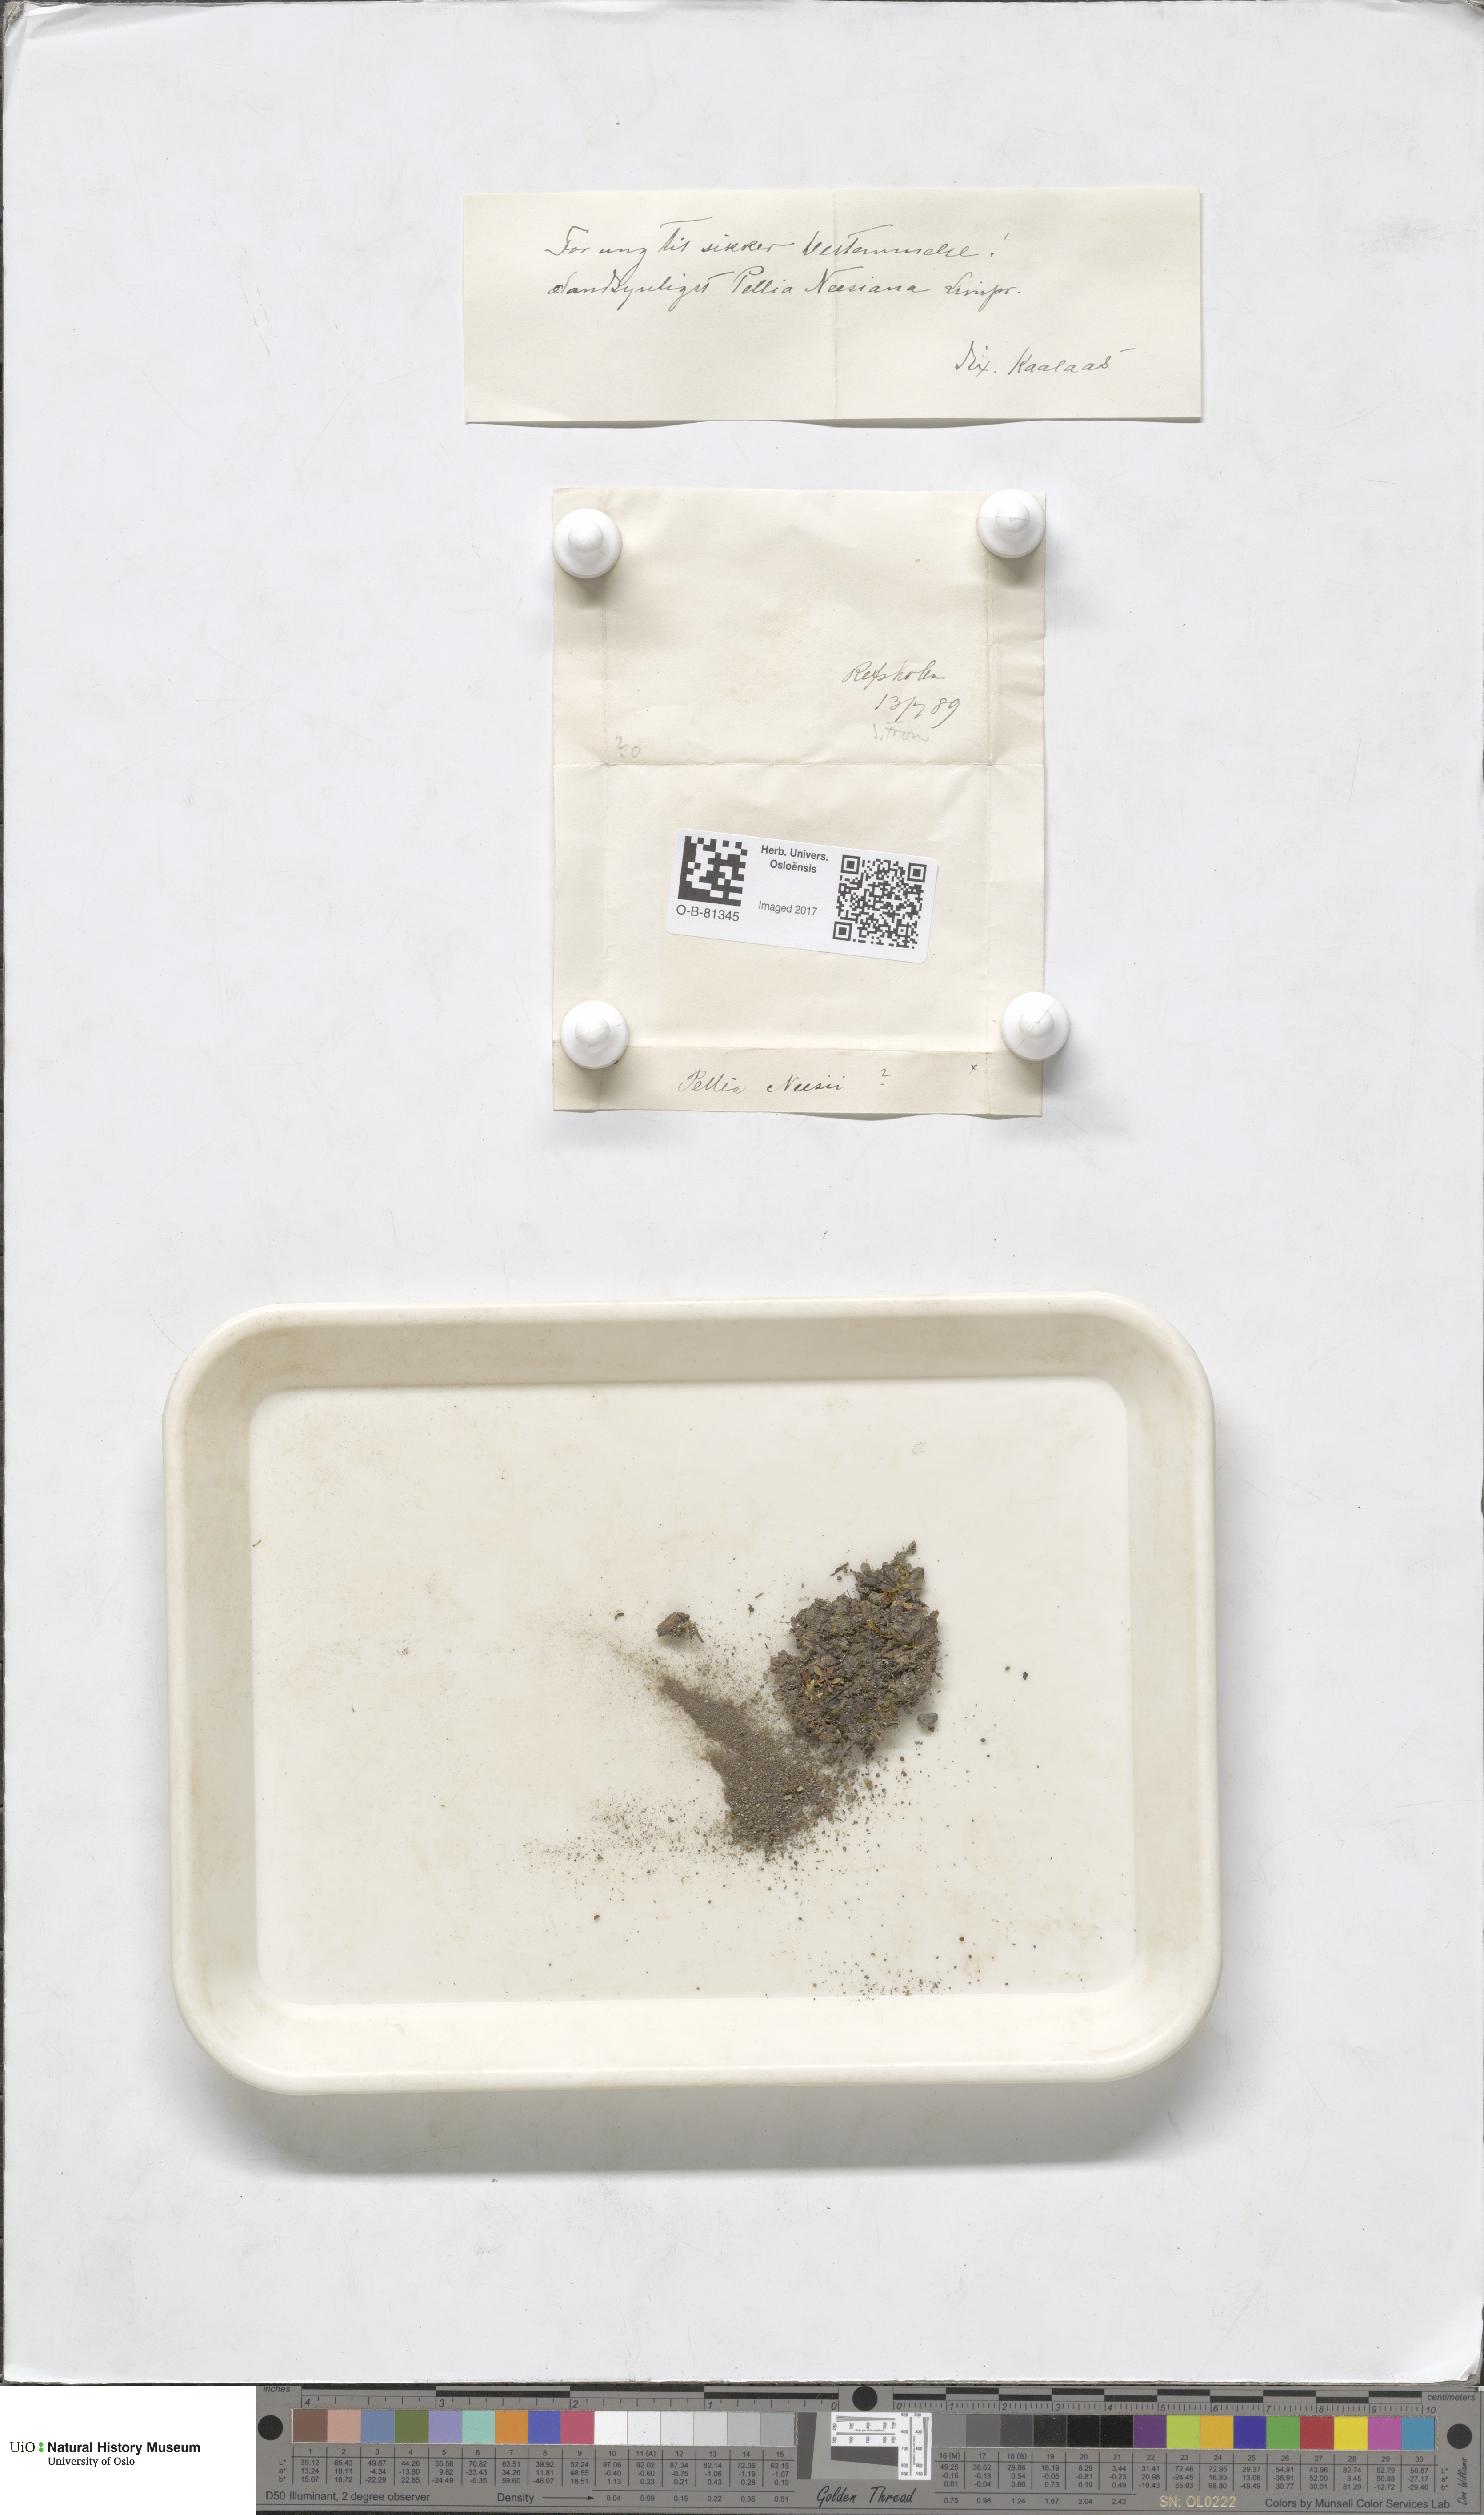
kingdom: Plantae
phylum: Marchantiophyta
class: Jungermanniopsida
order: Pelliales
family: Pelliaceae
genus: Pellia
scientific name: Pellia neesiana
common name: Nees  pellia
